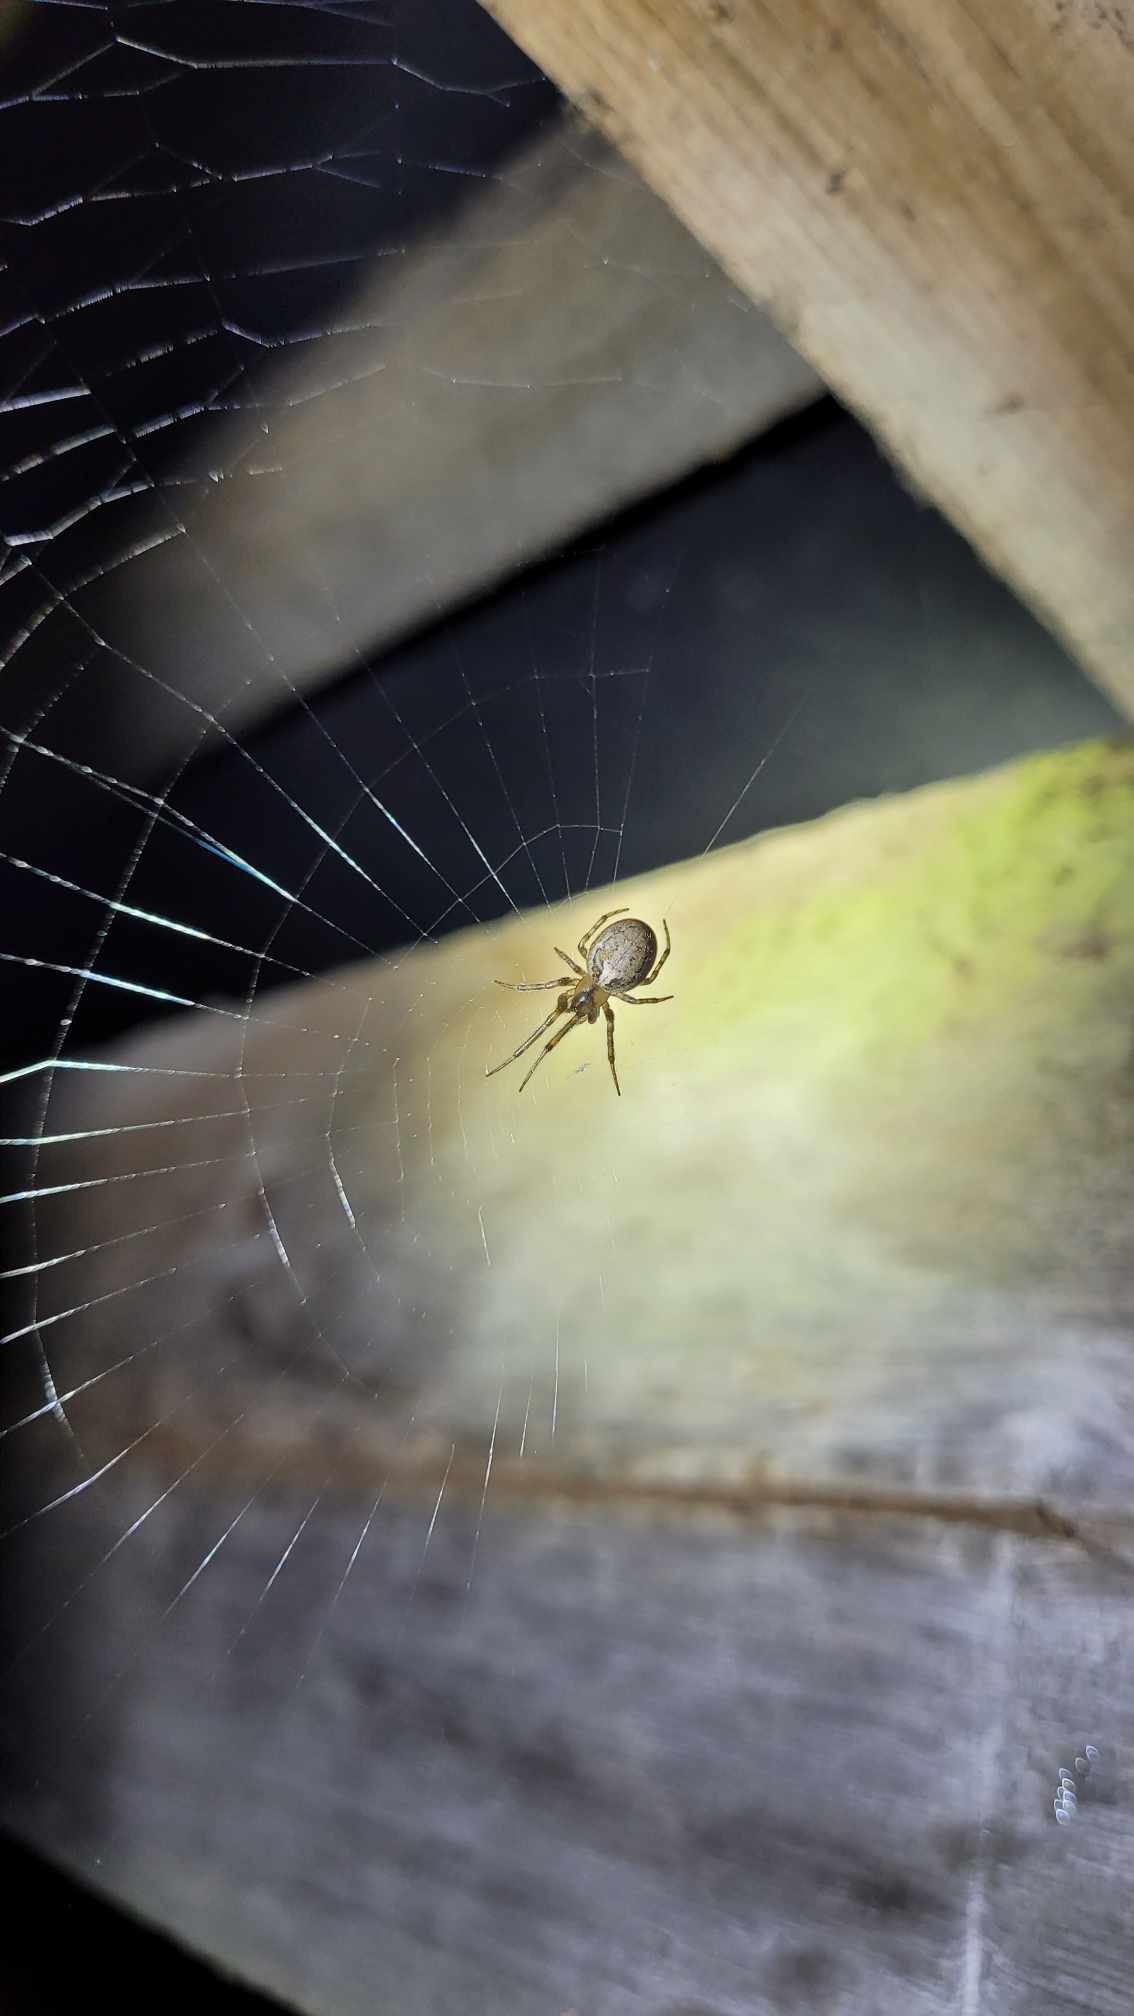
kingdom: Animalia
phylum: Arthropoda
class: Arachnida
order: Araneae
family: Araneidae
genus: Zygiella
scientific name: Zygiella x-notata
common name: Grå sektoredderkop
